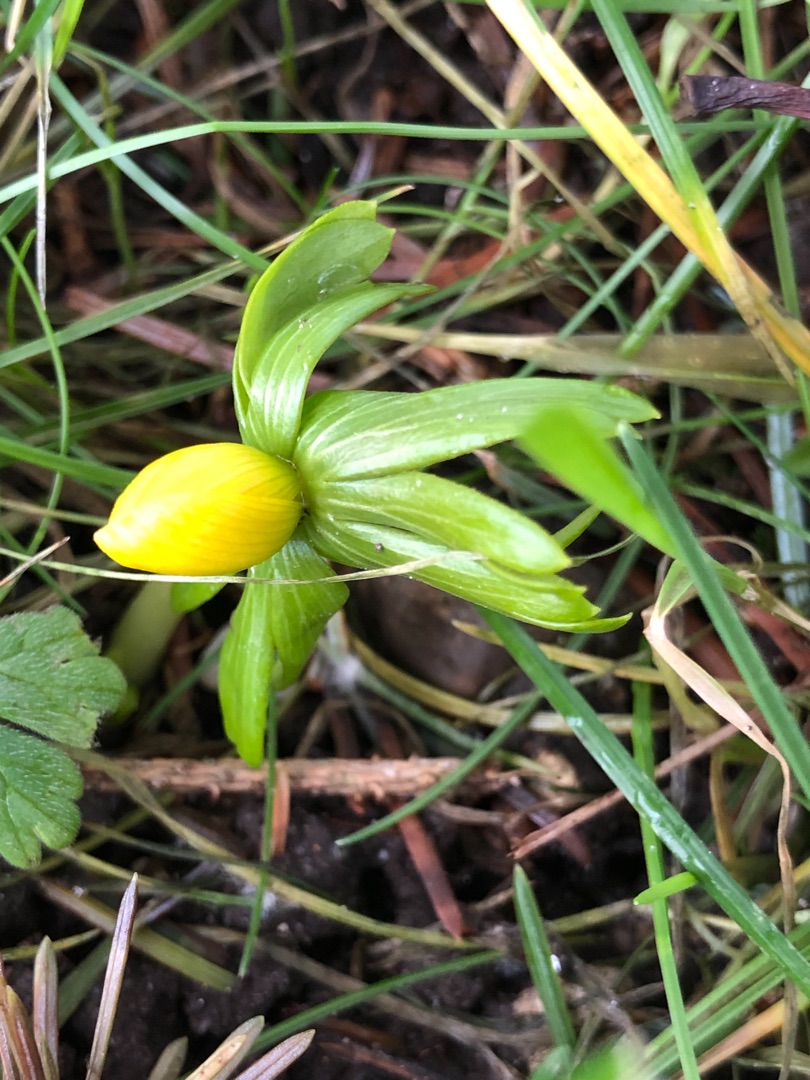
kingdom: Plantae
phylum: Tracheophyta
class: Magnoliopsida
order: Ranunculales
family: Ranunculaceae
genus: Eranthis
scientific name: Eranthis hyemalis
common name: Erantis
